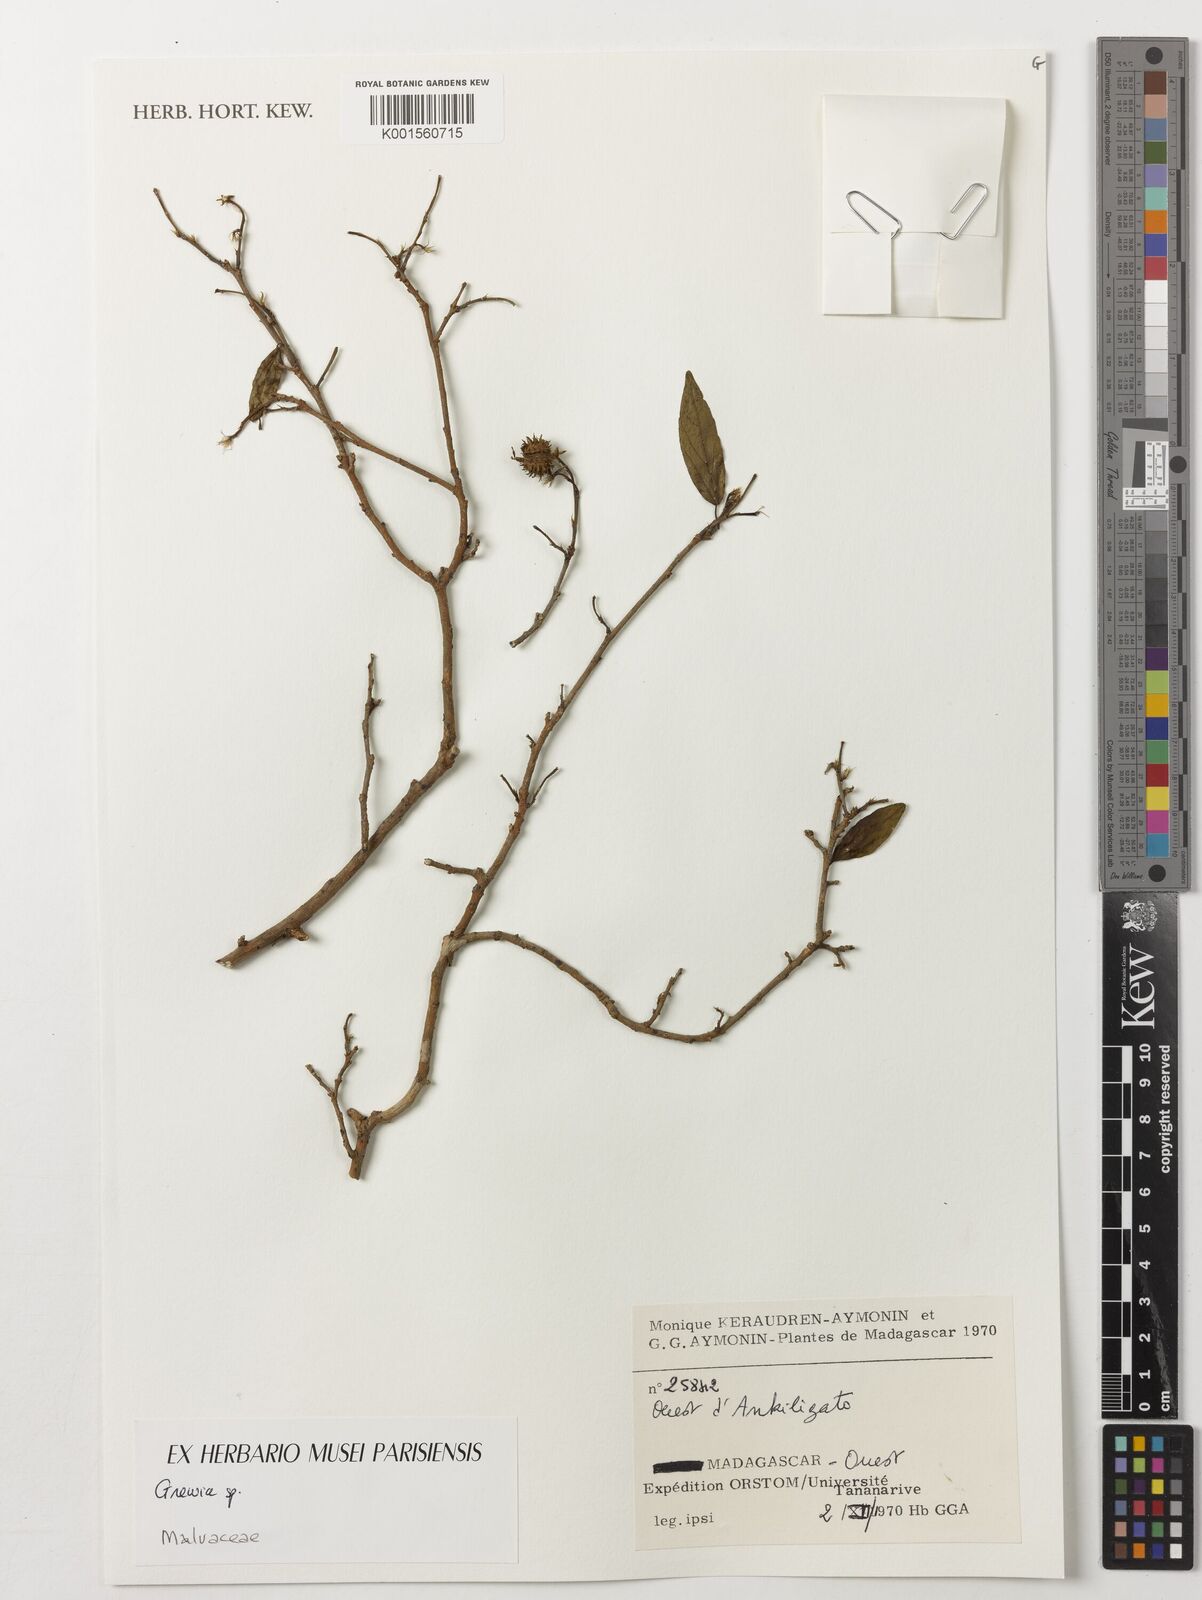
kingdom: Plantae
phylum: Tracheophyta
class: Magnoliopsida
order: Malvales
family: Malvaceae
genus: Grewia
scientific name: Grewia
